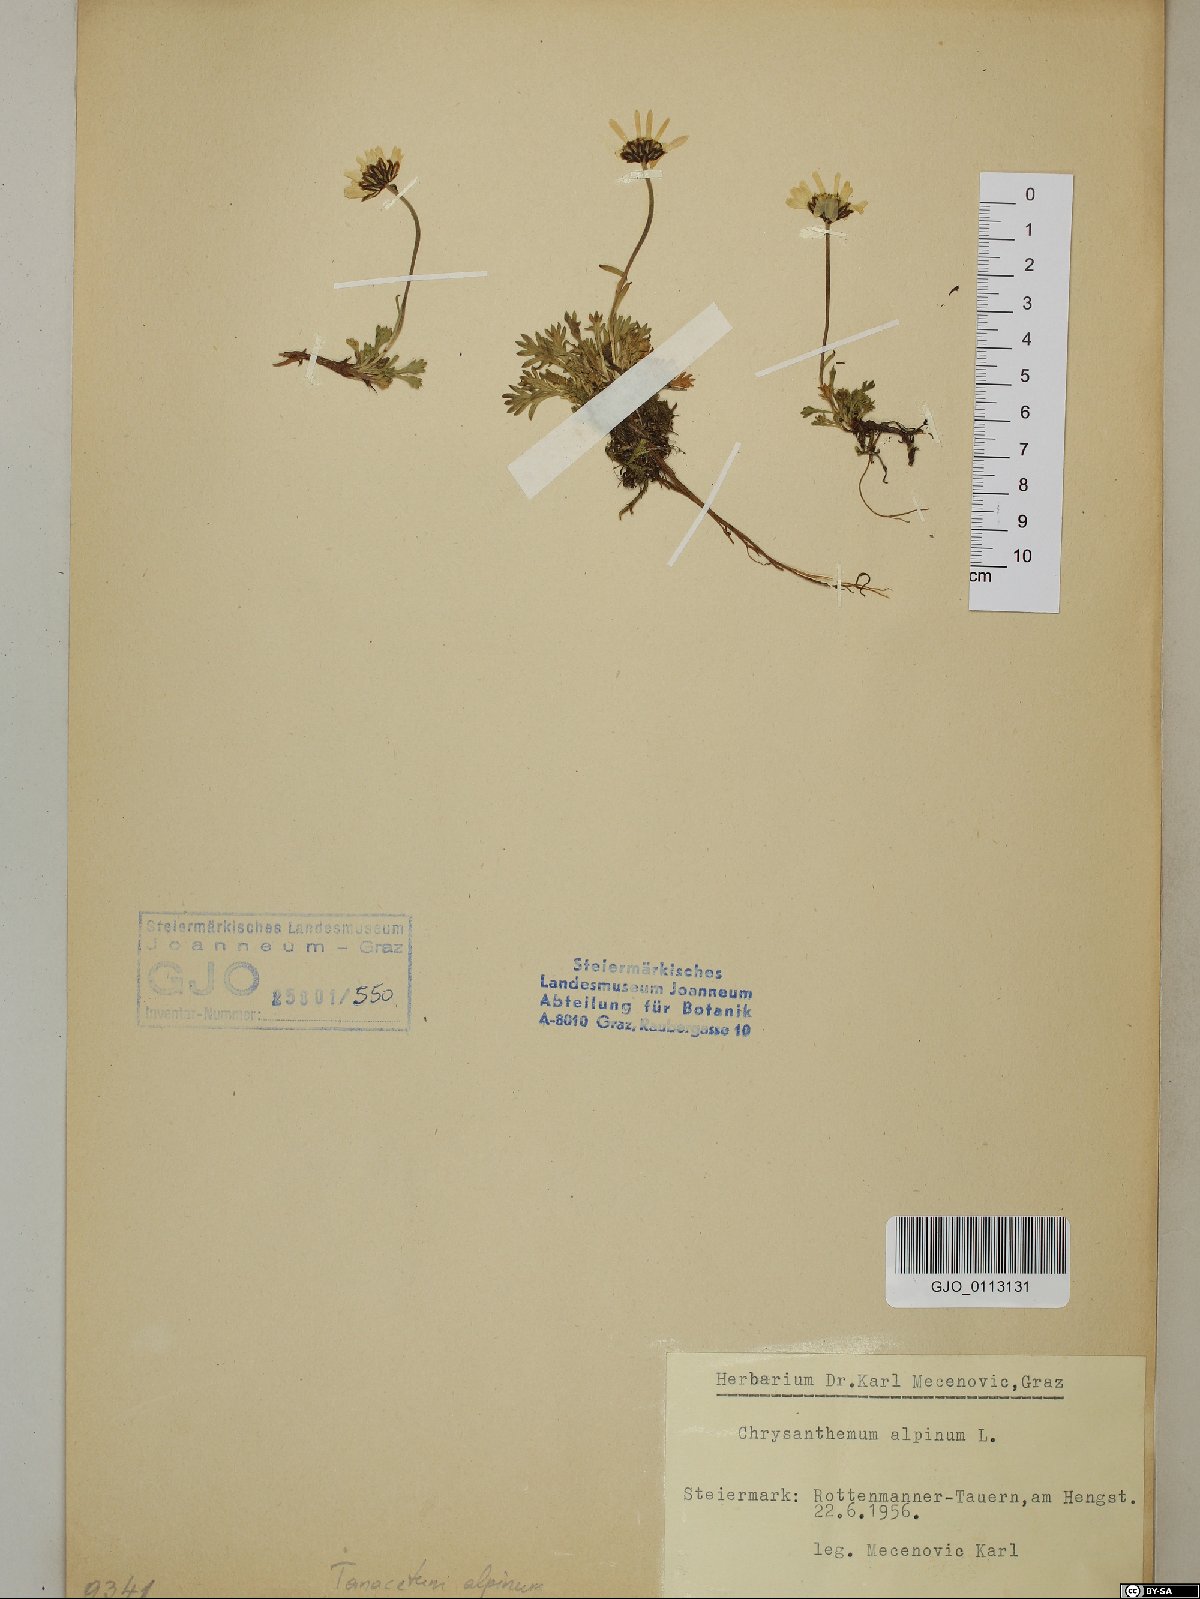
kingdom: Plantae
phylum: Tracheophyta
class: Magnoliopsida
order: Asterales
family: Asteraceae
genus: Leucanthemopsis
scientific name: Leucanthemopsis alpina
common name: Alpine moon daisy
